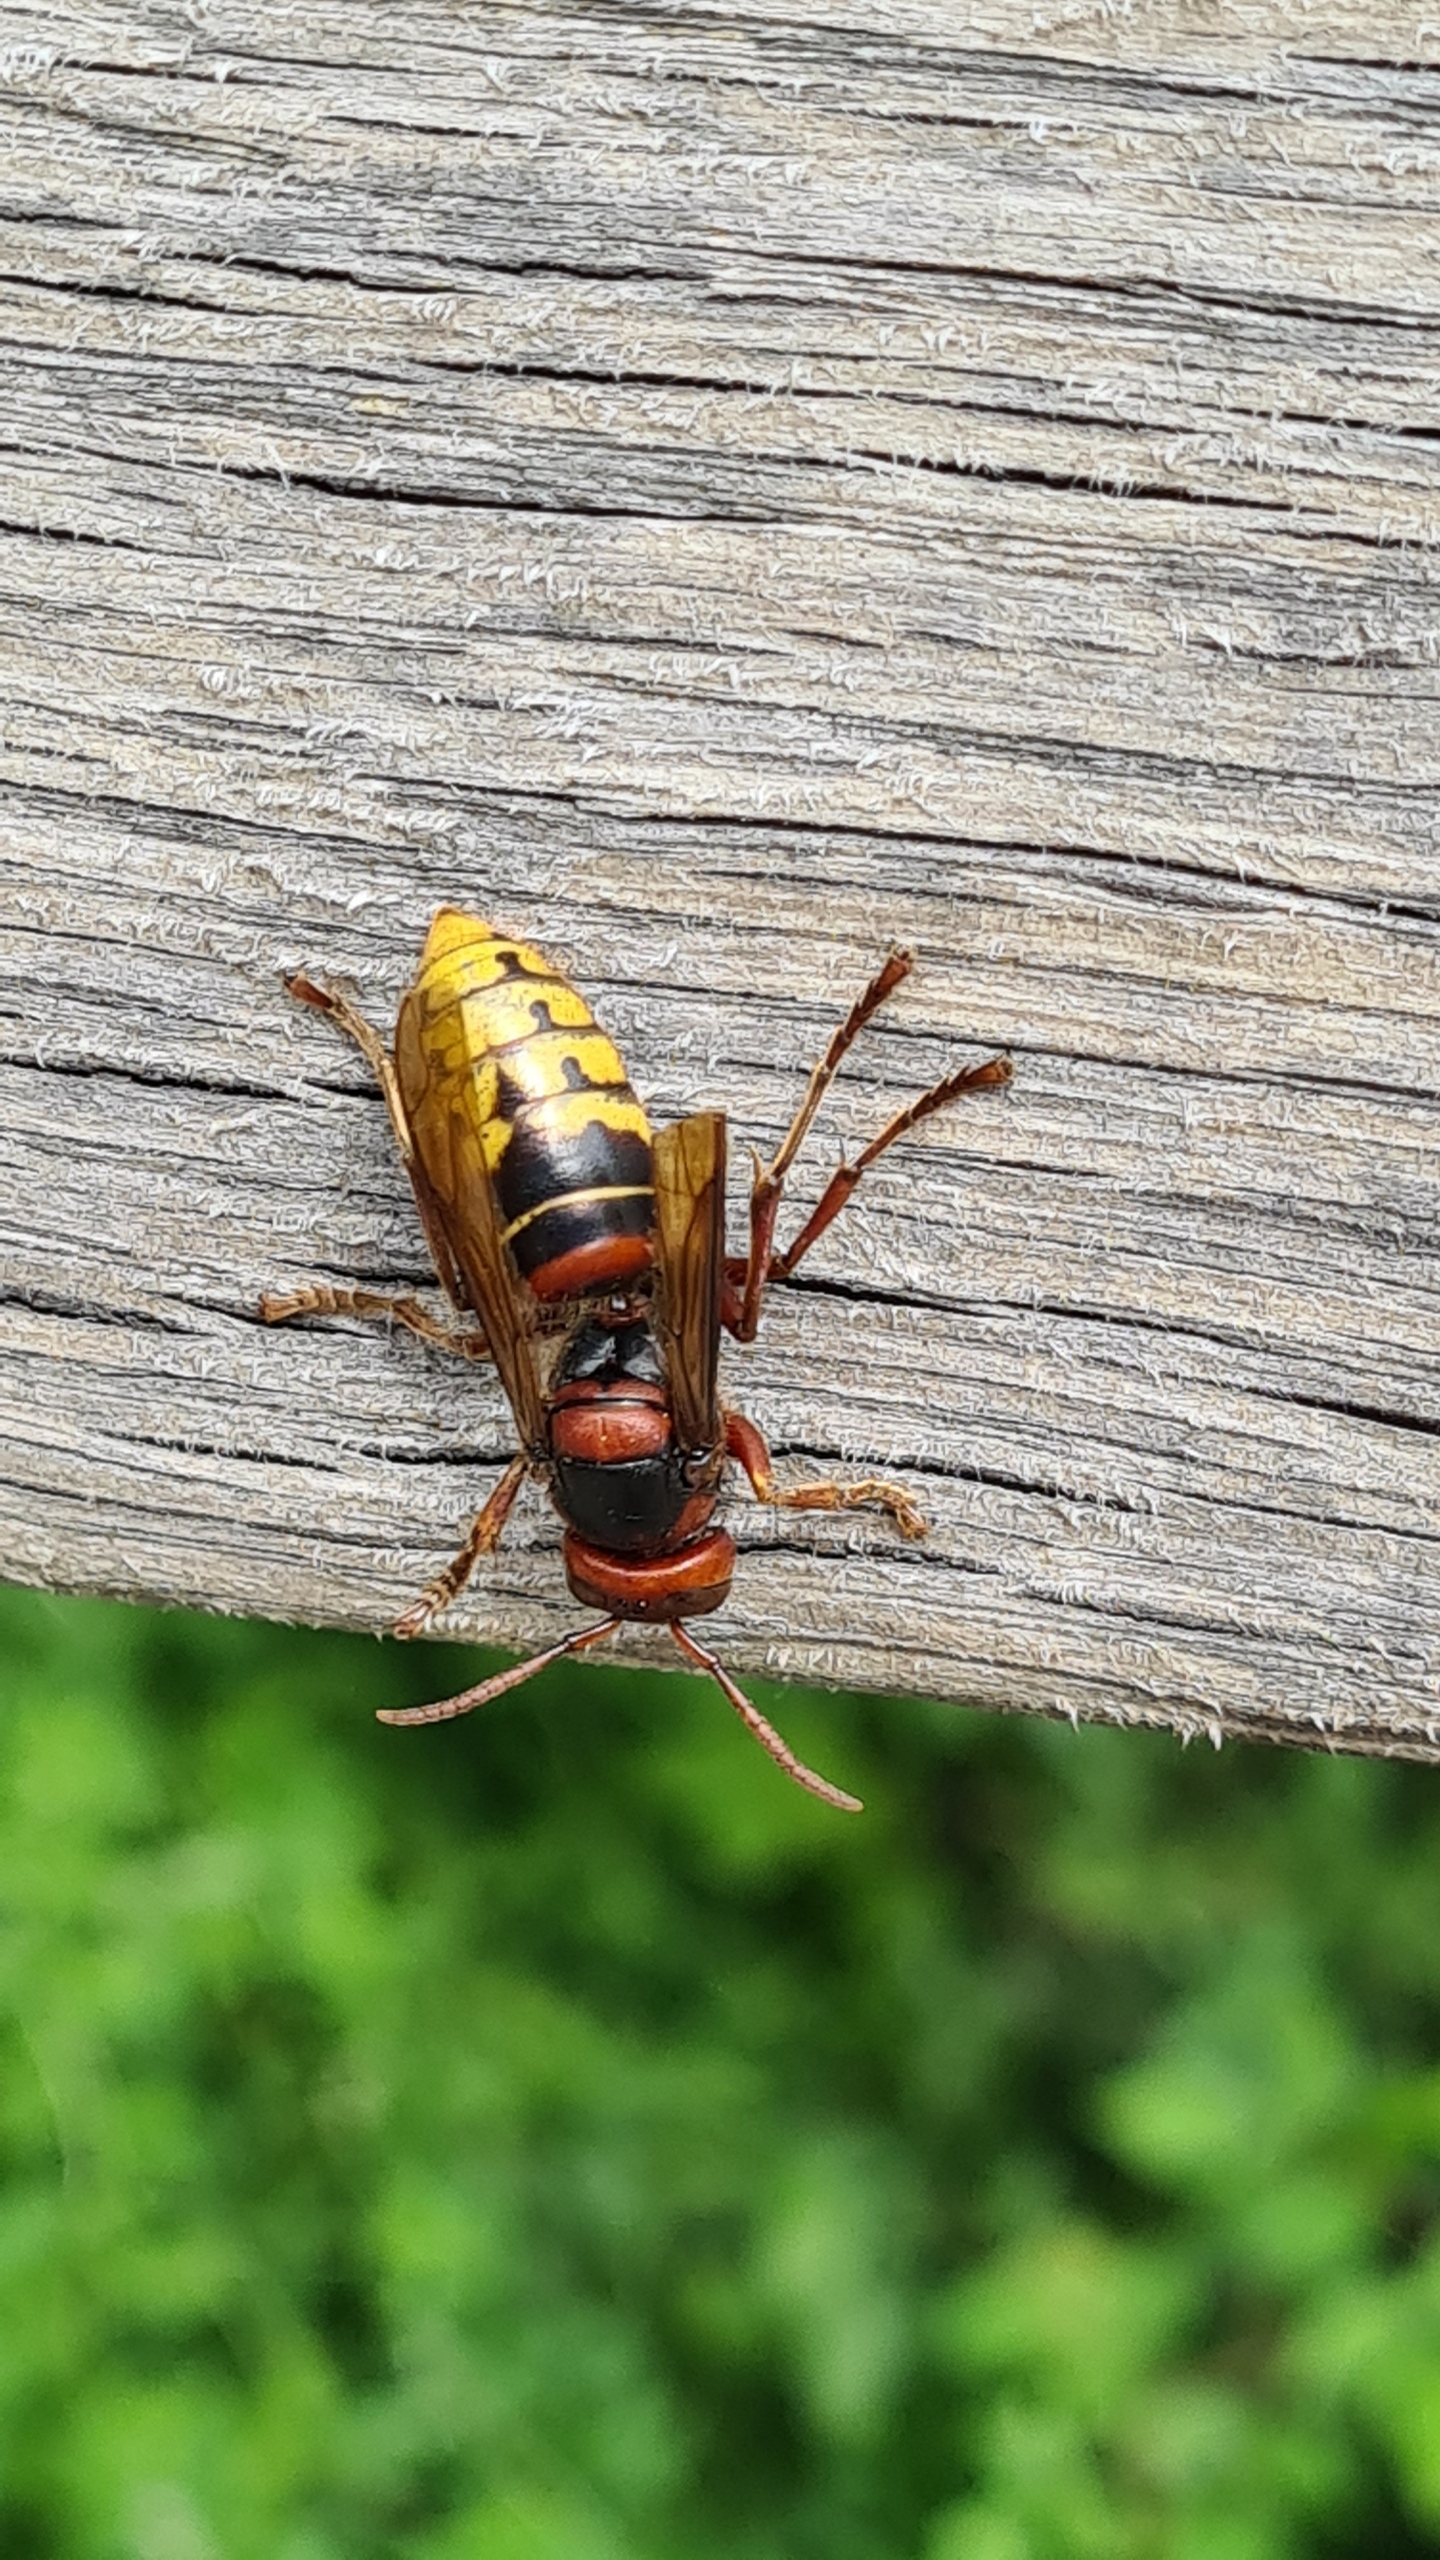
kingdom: Animalia
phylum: Arthropoda
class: Insecta
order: Hymenoptera
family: Vespidae
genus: Vespa
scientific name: Vespa crabro
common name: Stor gedehams
